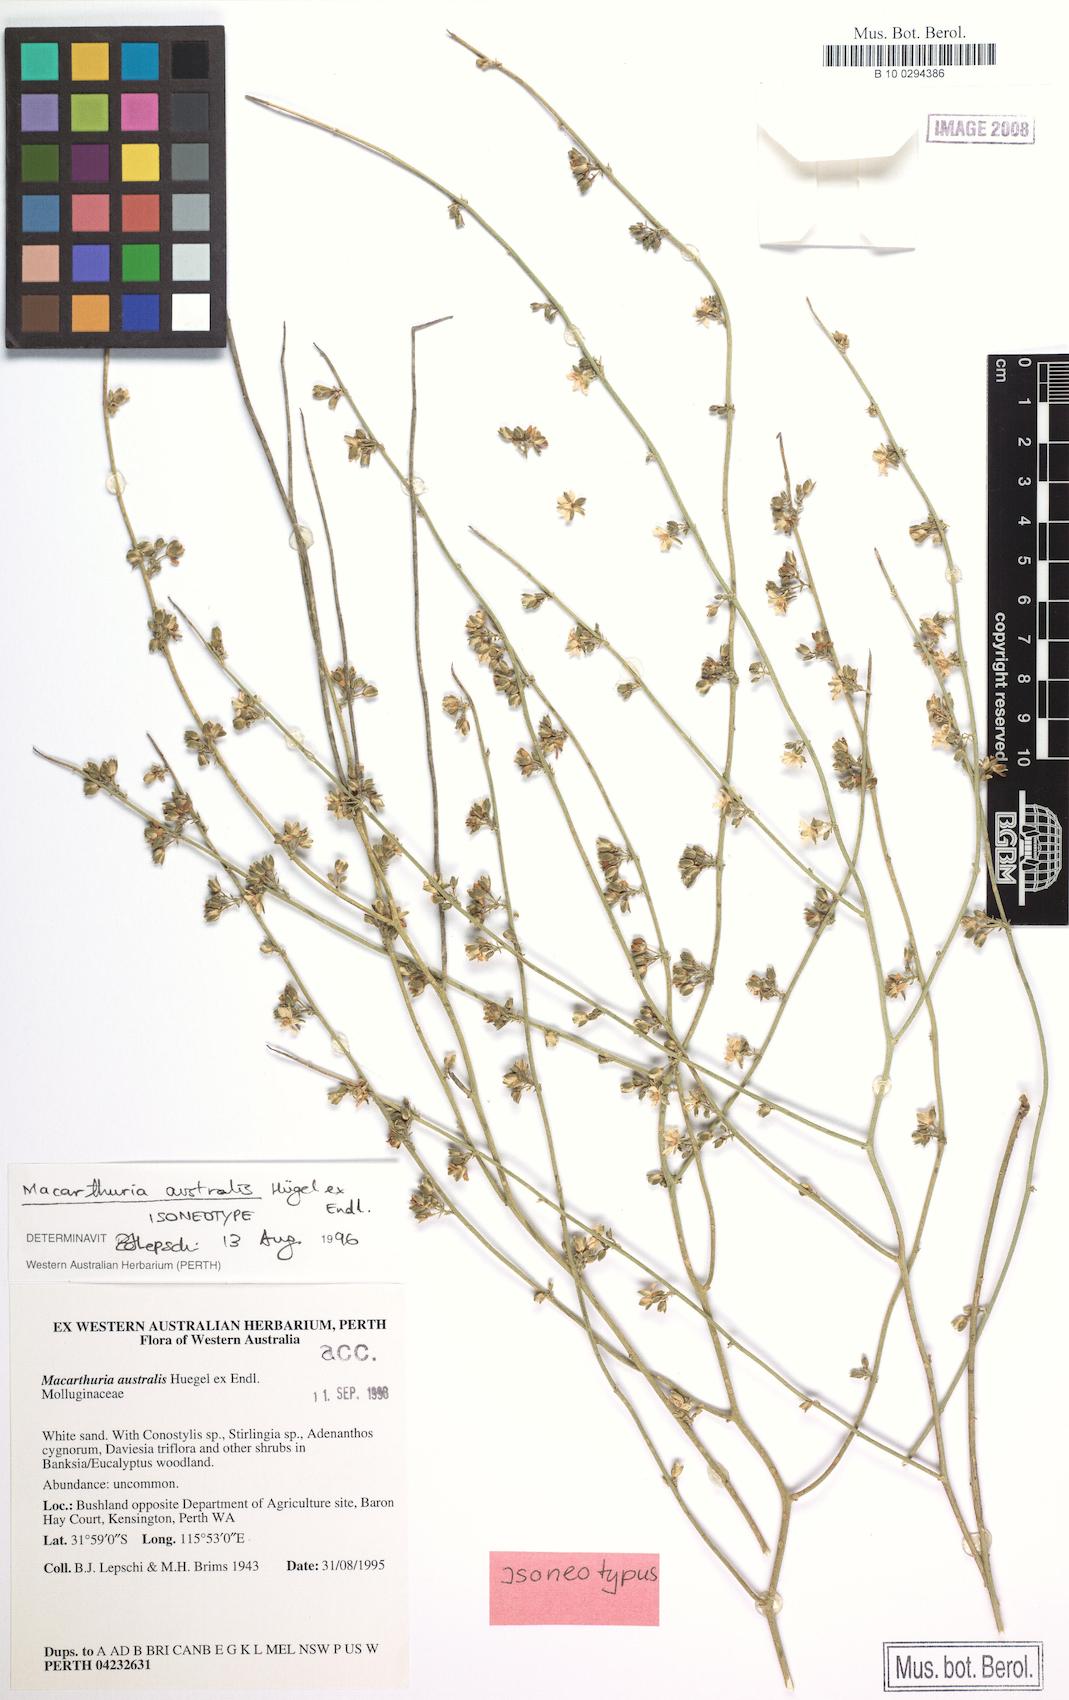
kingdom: Plantae
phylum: Tracheophyta
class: Magnoliopsida
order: Caryophyllales
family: Macarthuriaceae
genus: Macarthuria
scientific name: Macarthuria australis
